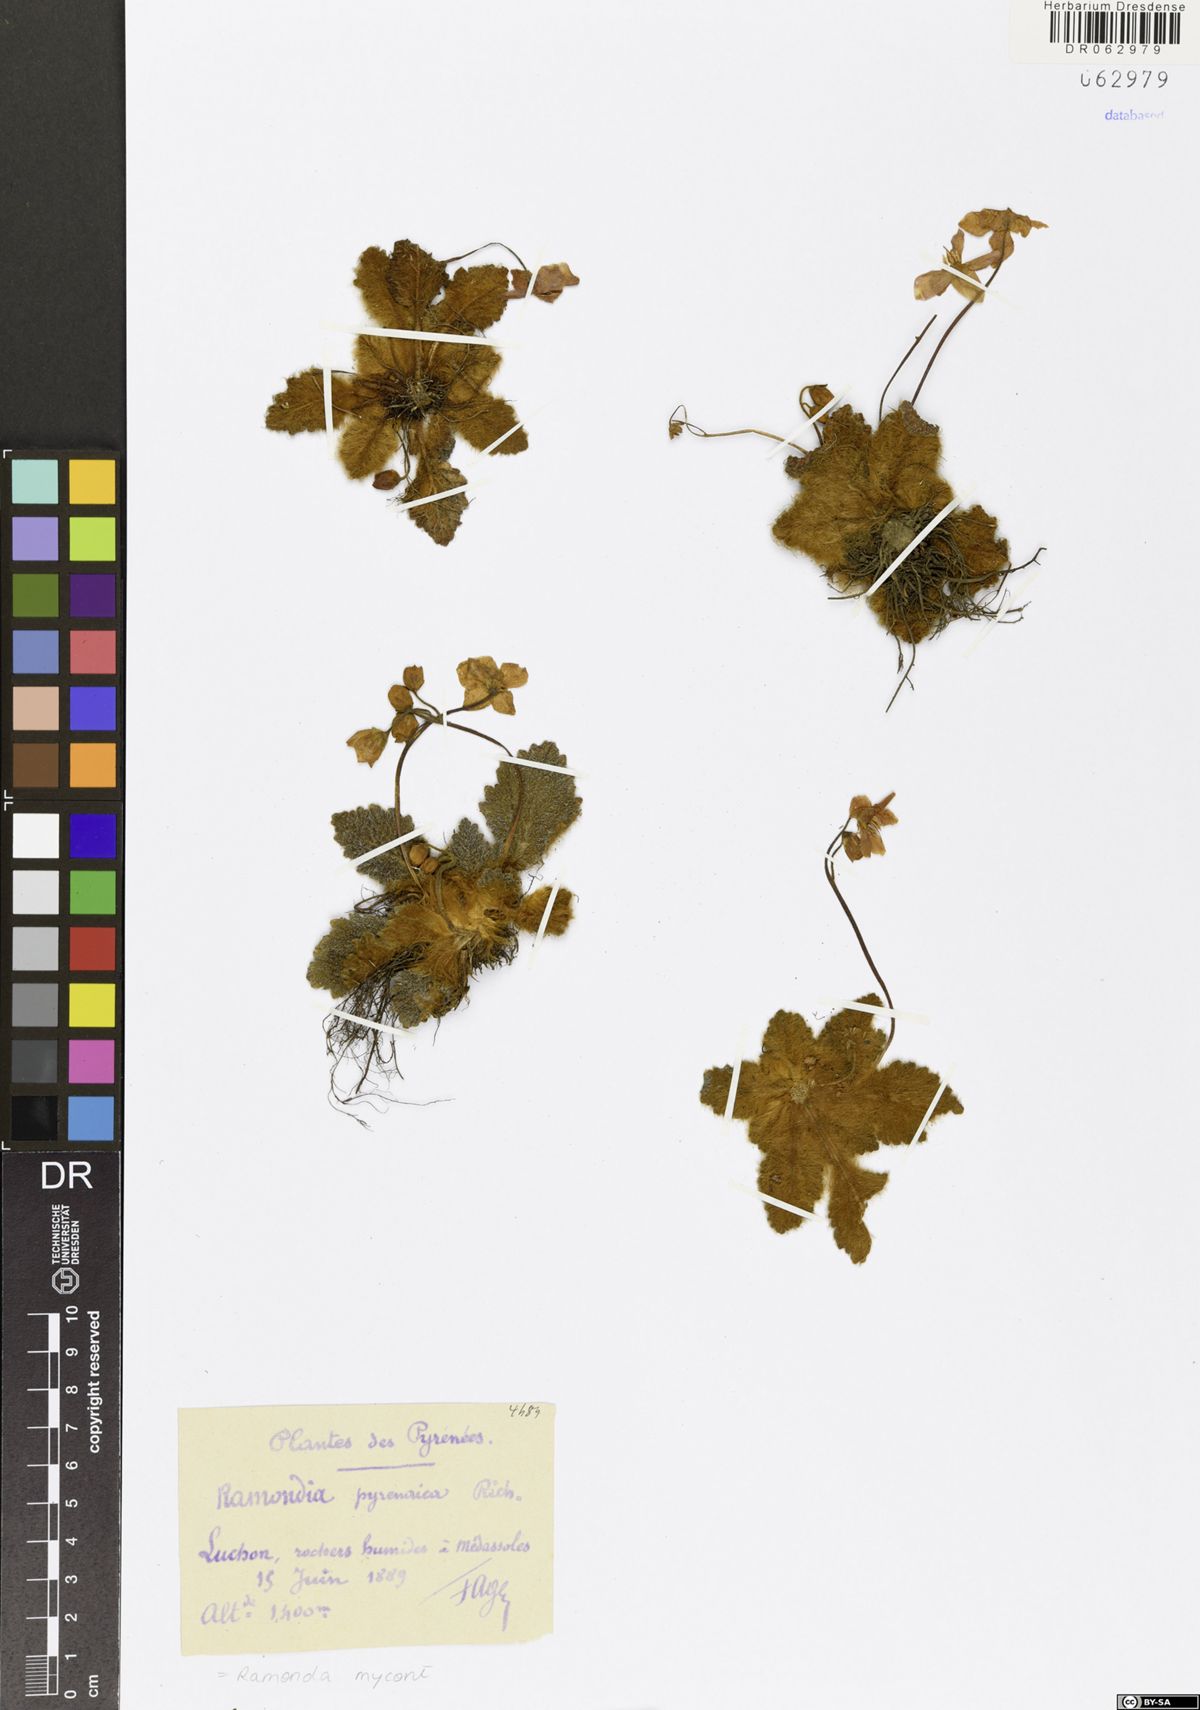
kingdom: Plantae
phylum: Tracheophyta
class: Magnoliopsida
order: Lamiales
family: Gesneriaceae
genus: Ramonda
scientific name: Ramonda myconi
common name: Pyrenean-violet
